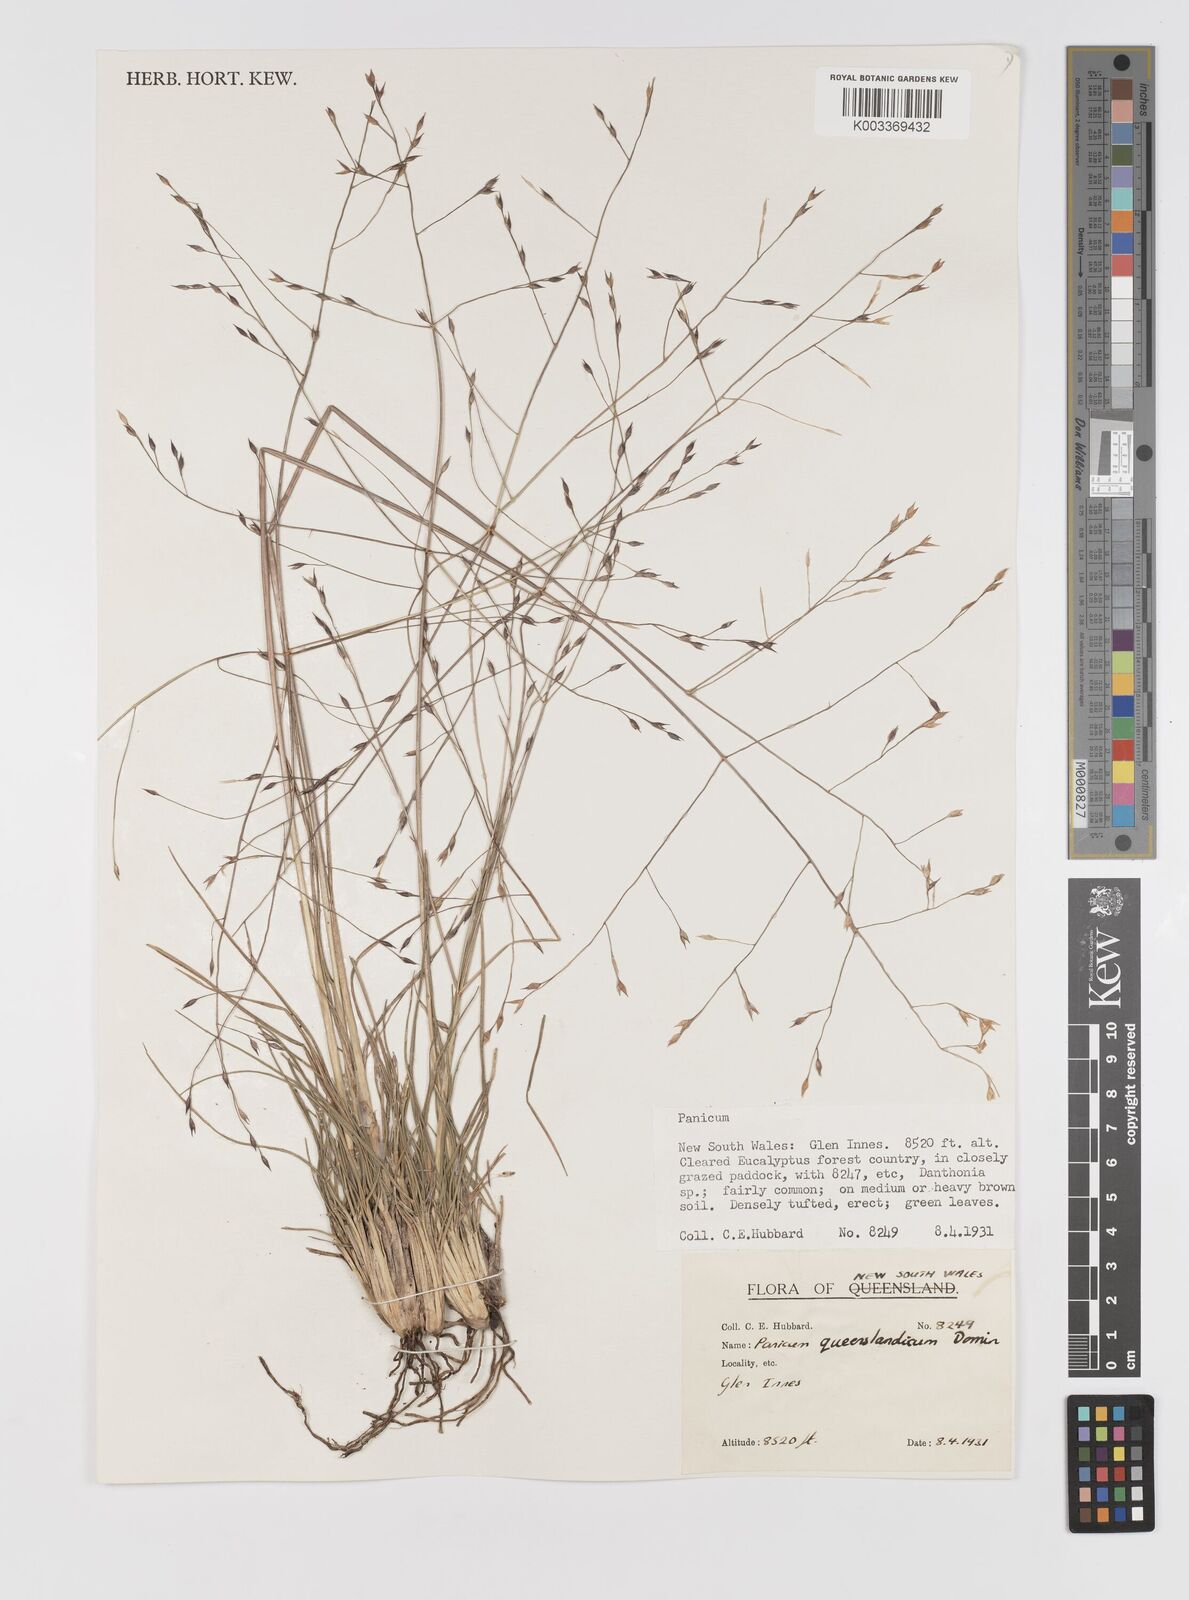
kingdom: Plantae
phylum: Tracheophyta
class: Liliopsida
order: Poales
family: Poaceae
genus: Panicum
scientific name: Panicum queenslandicum
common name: Yabila grass
